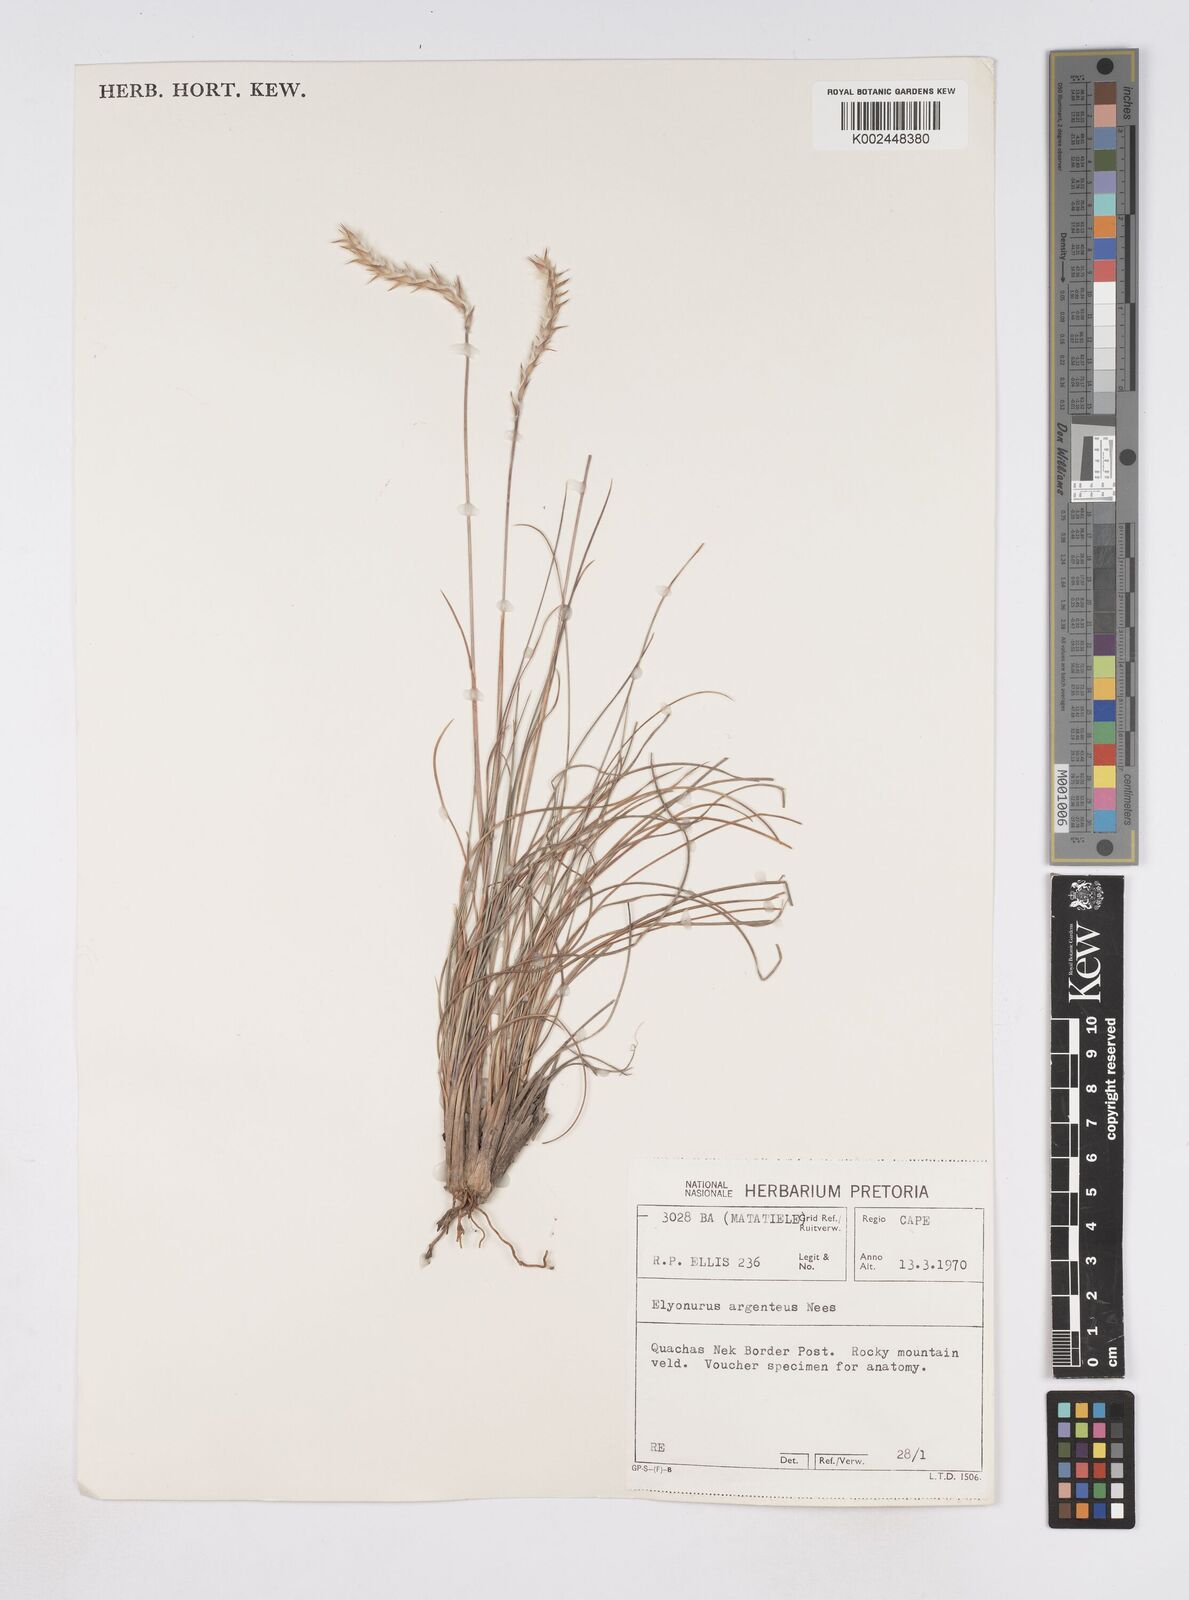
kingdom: Plantae
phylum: Tracheophyta
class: Liliopsida
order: Poales
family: Poaceae
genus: Elionurus
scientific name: Elionurus muticus
